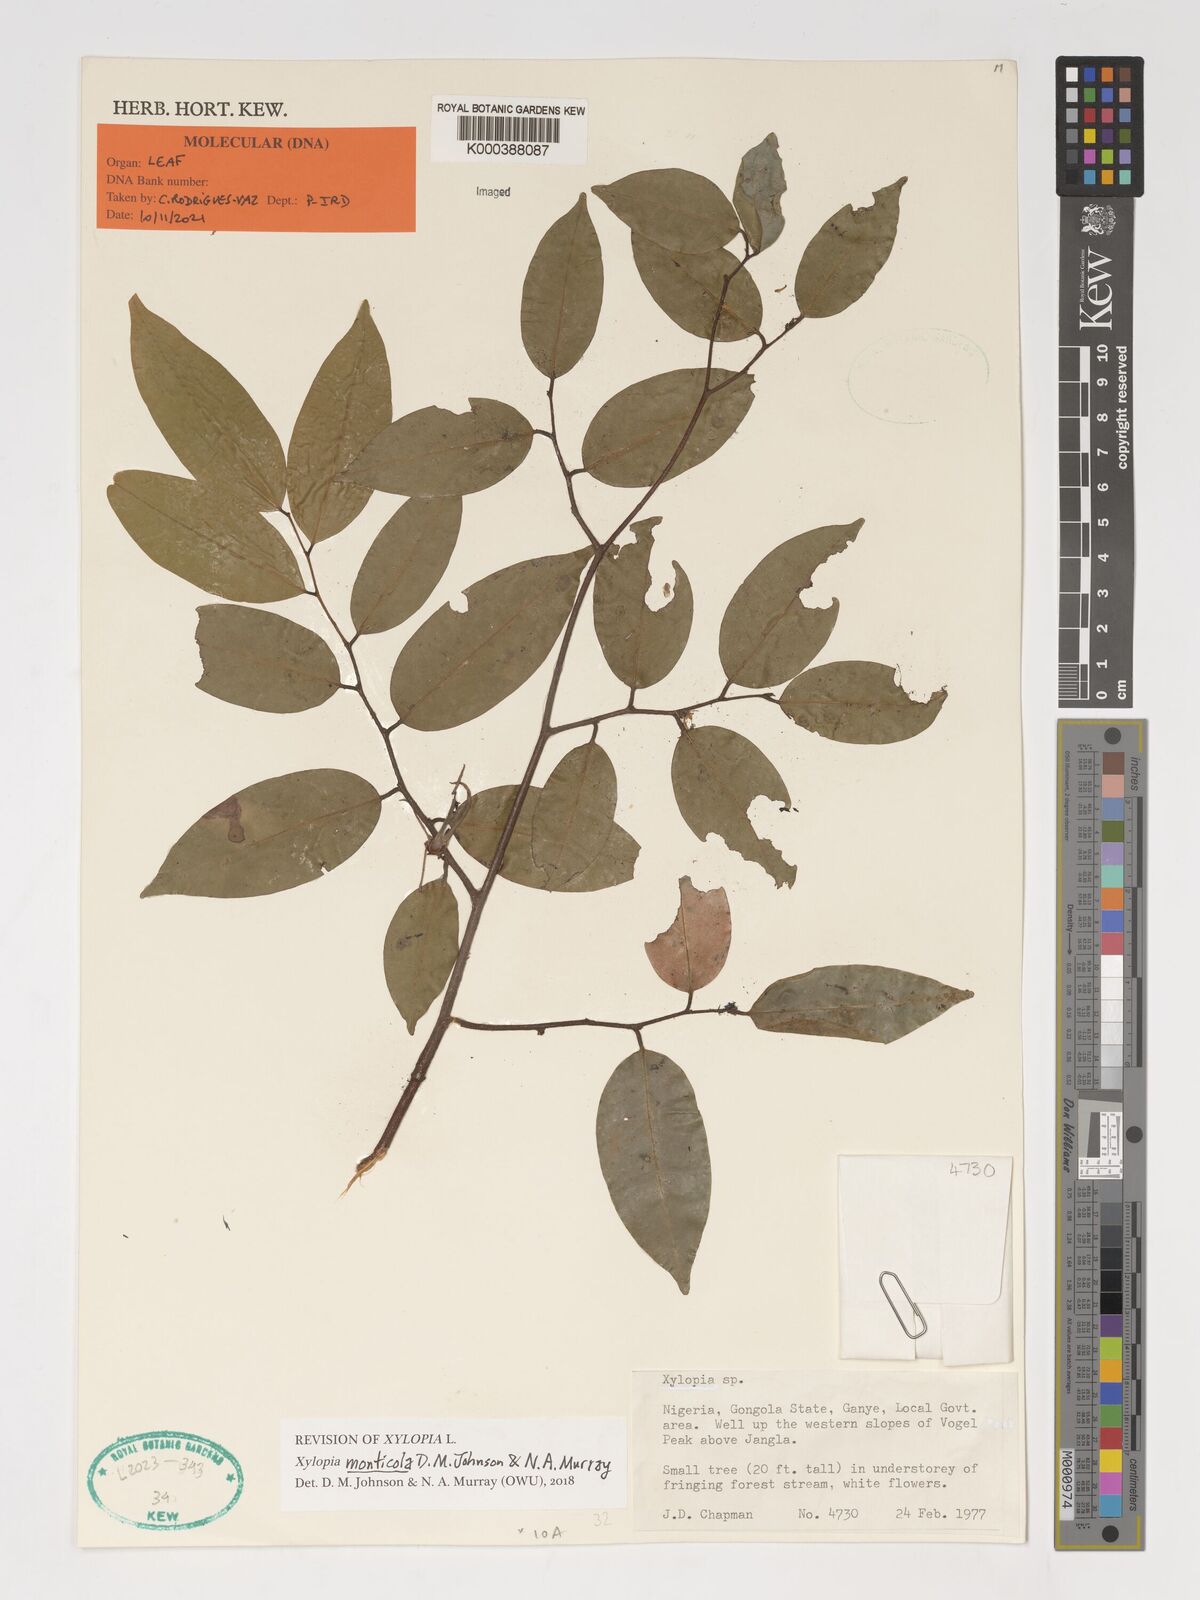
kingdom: Plantae
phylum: Tracheophyta
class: Magnoliopsida
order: Magnoliales
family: Annonaceae
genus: Xylopia
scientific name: Xylopia monticola
